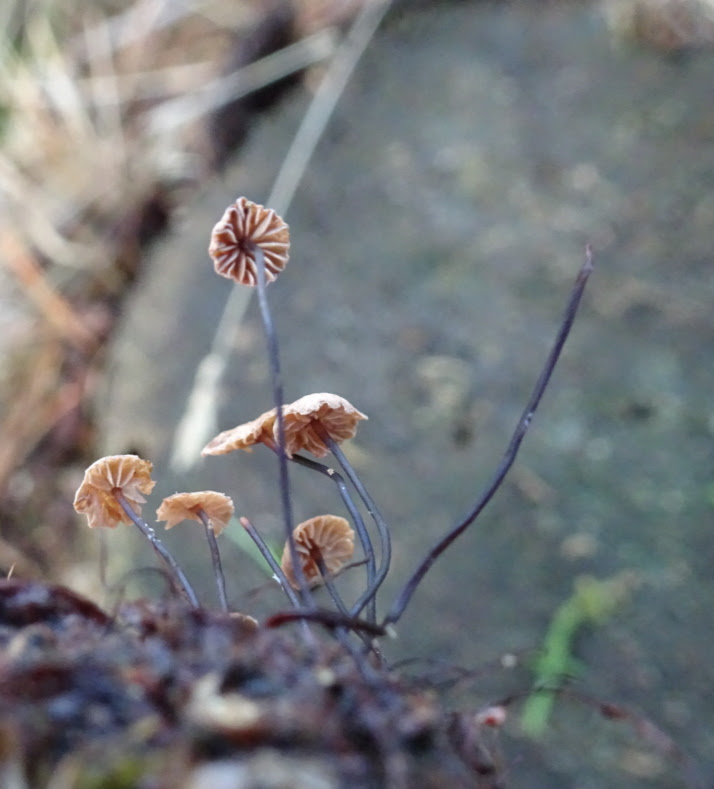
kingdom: Fungi
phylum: Basidiomycota
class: Agaricomycetes
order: Agaricales
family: Marasmiaceae
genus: Marasmius
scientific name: Marasmius rotula
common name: hjul-bruskhat
